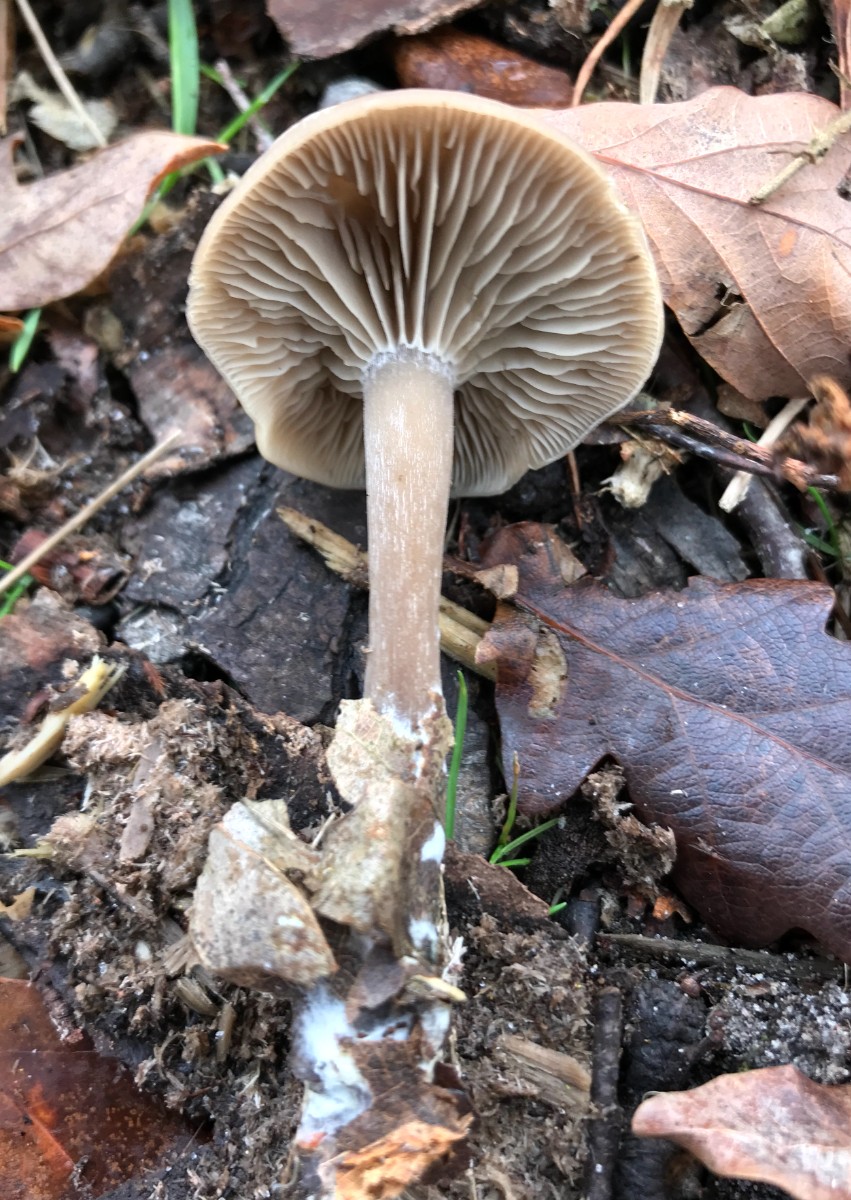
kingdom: Fungi
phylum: Basidiomycota
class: Agaricomycetes
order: Agaricales
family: Omphalotaceae
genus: Rhodocollybia
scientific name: Rhodocollybia asema
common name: horngrå fladhat
